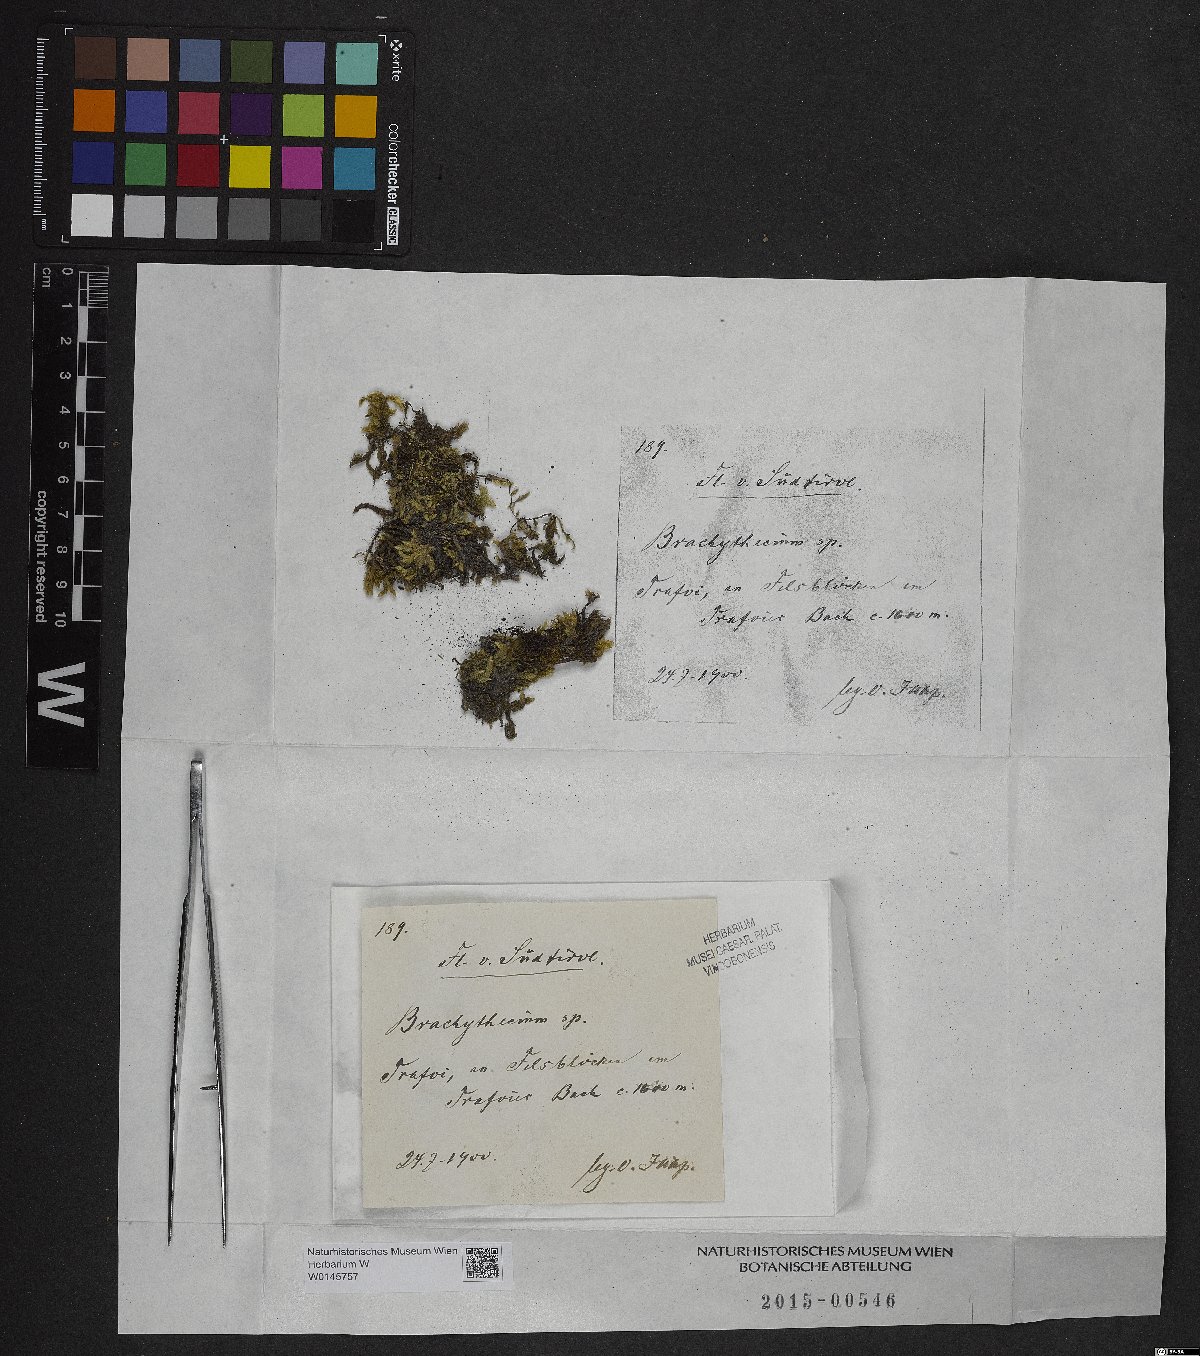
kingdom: Plantae
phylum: Bryophyta
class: Bryopsida
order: Hypnales
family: Brachytheciaceae
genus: Brachythecium
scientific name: Brachythecium
